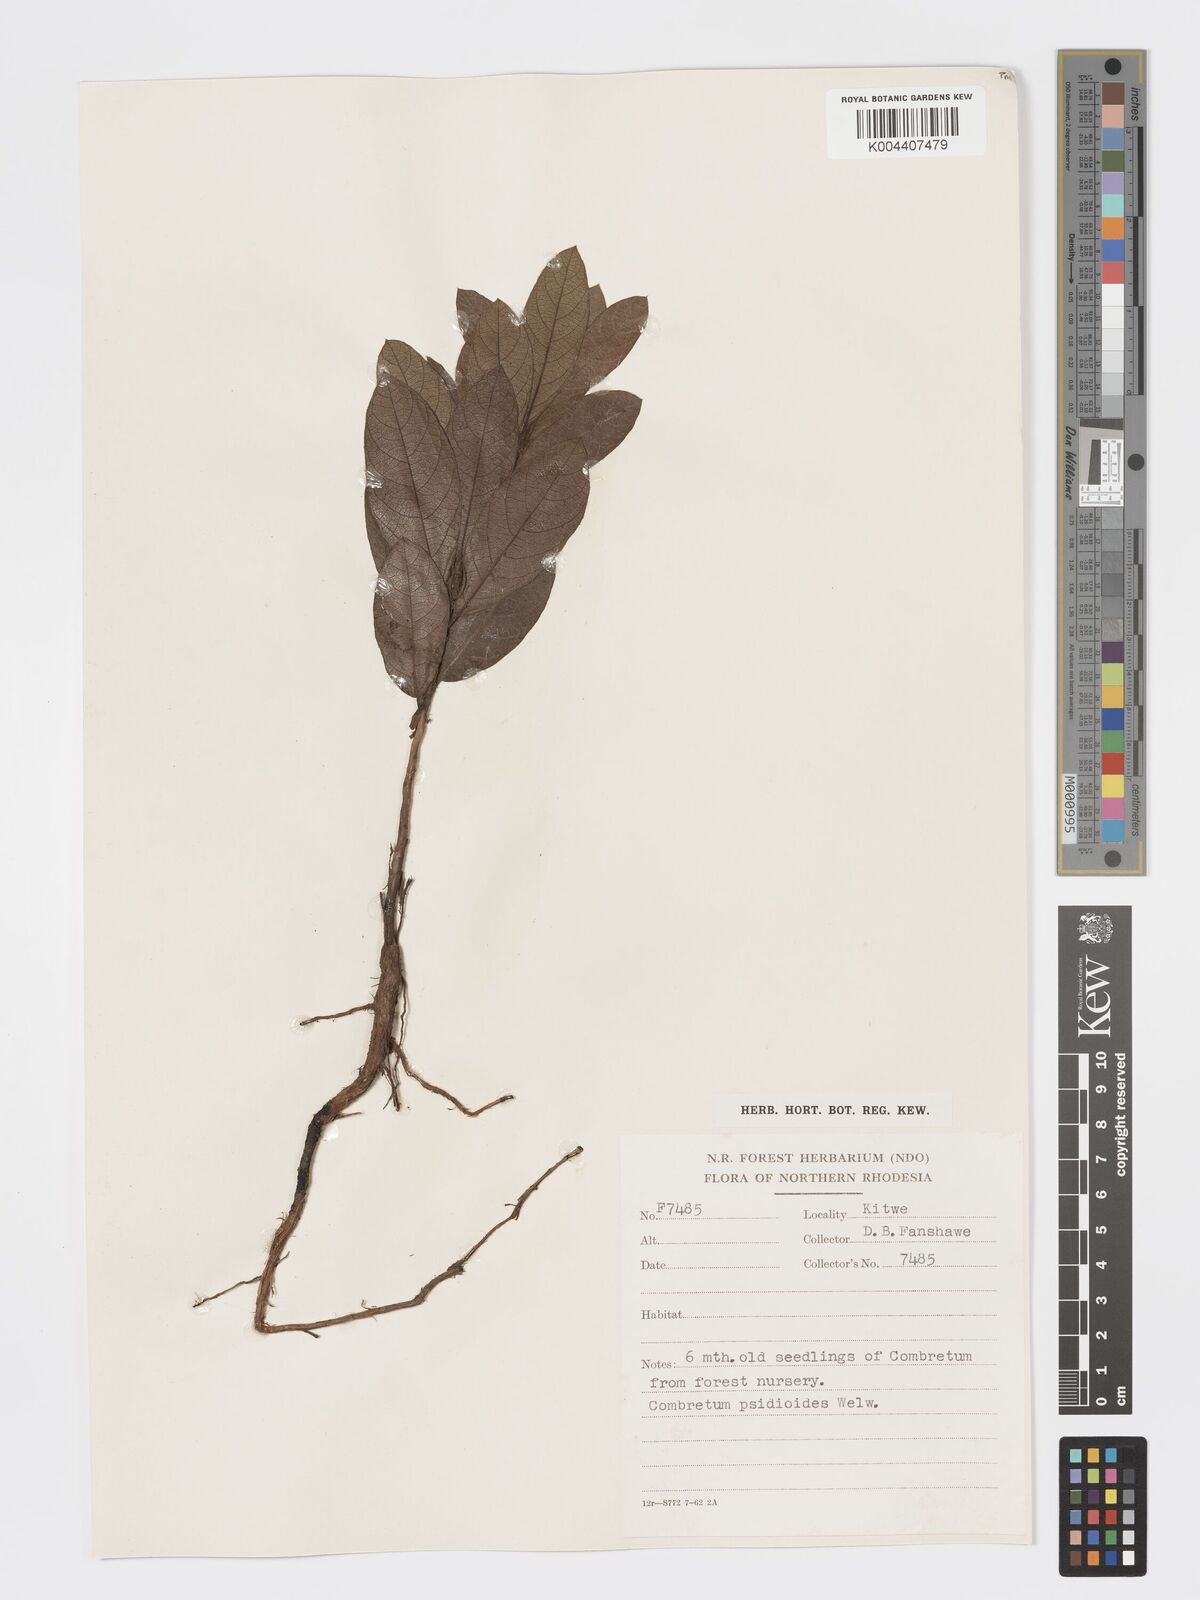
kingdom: Plantae
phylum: Tracheophyta
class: Magnoliopsida
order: Myrtales
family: Combretaceae
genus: Combretum
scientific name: Combretum psidioides
